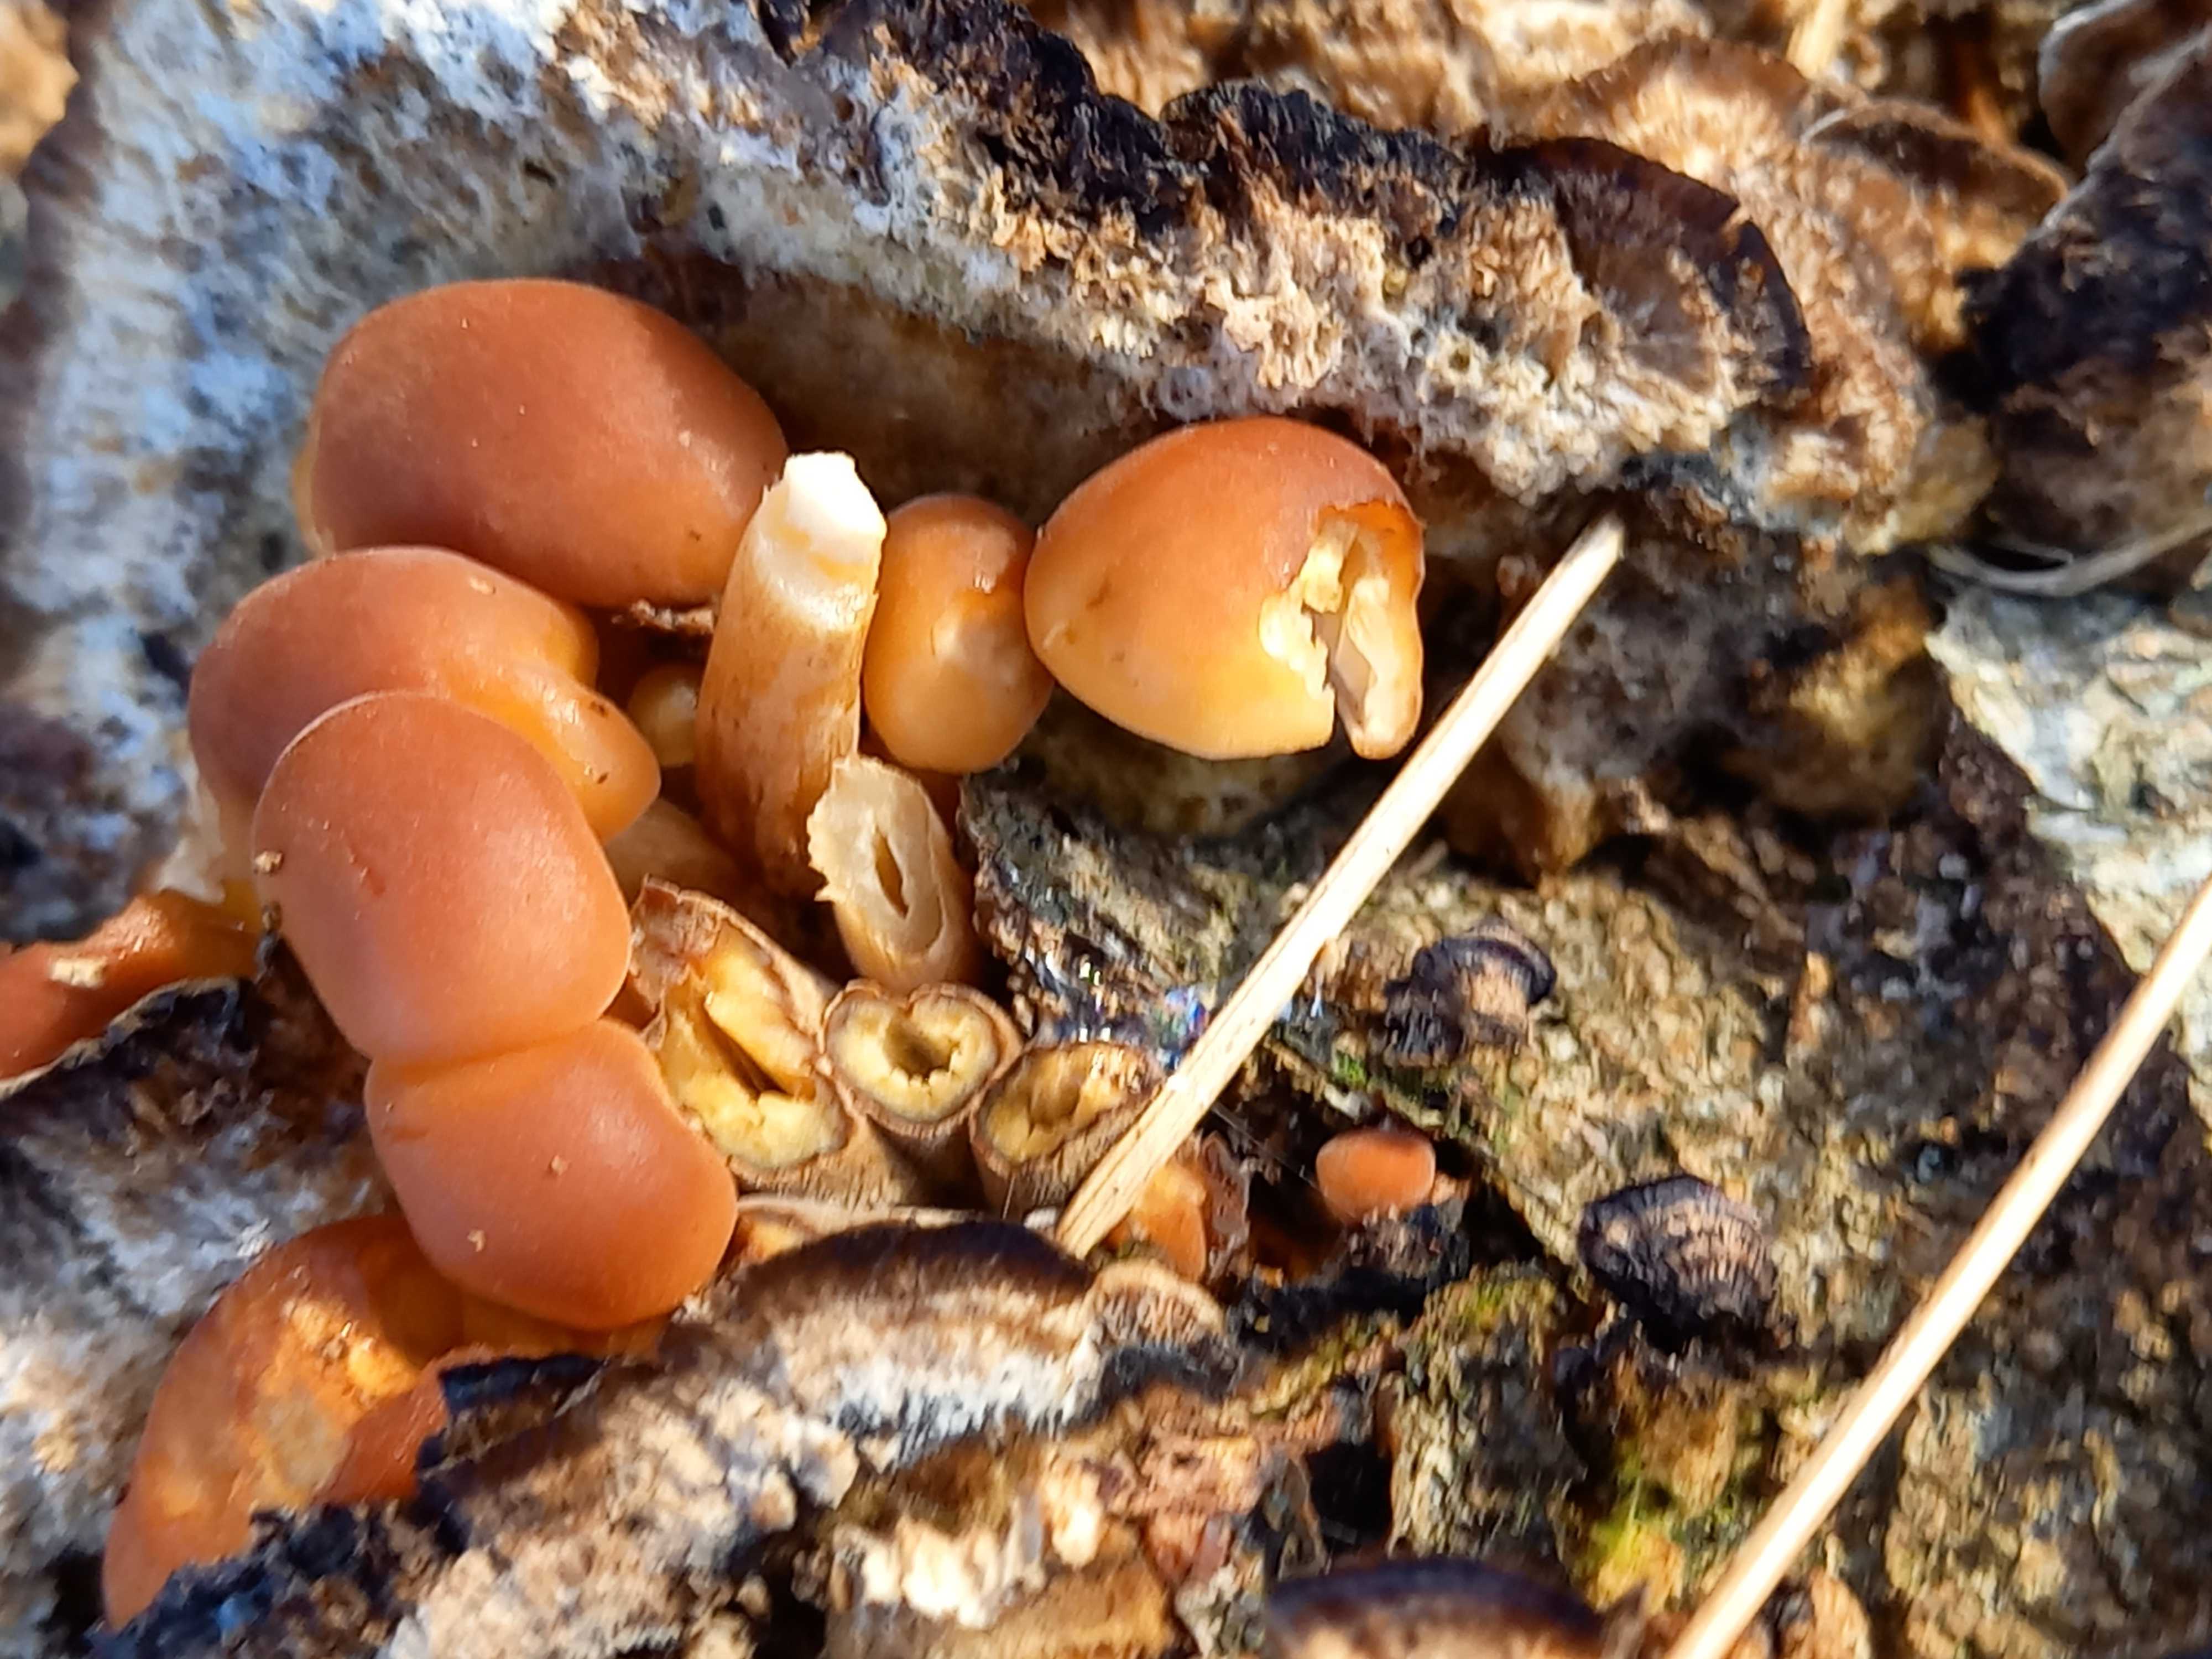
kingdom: Fungi
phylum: Basidiomycota
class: Agaricomycetes
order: Agaricales
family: Physalacriaceae
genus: Flammulina
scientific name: Flammulina velutipes
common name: gul fløjlsfod
